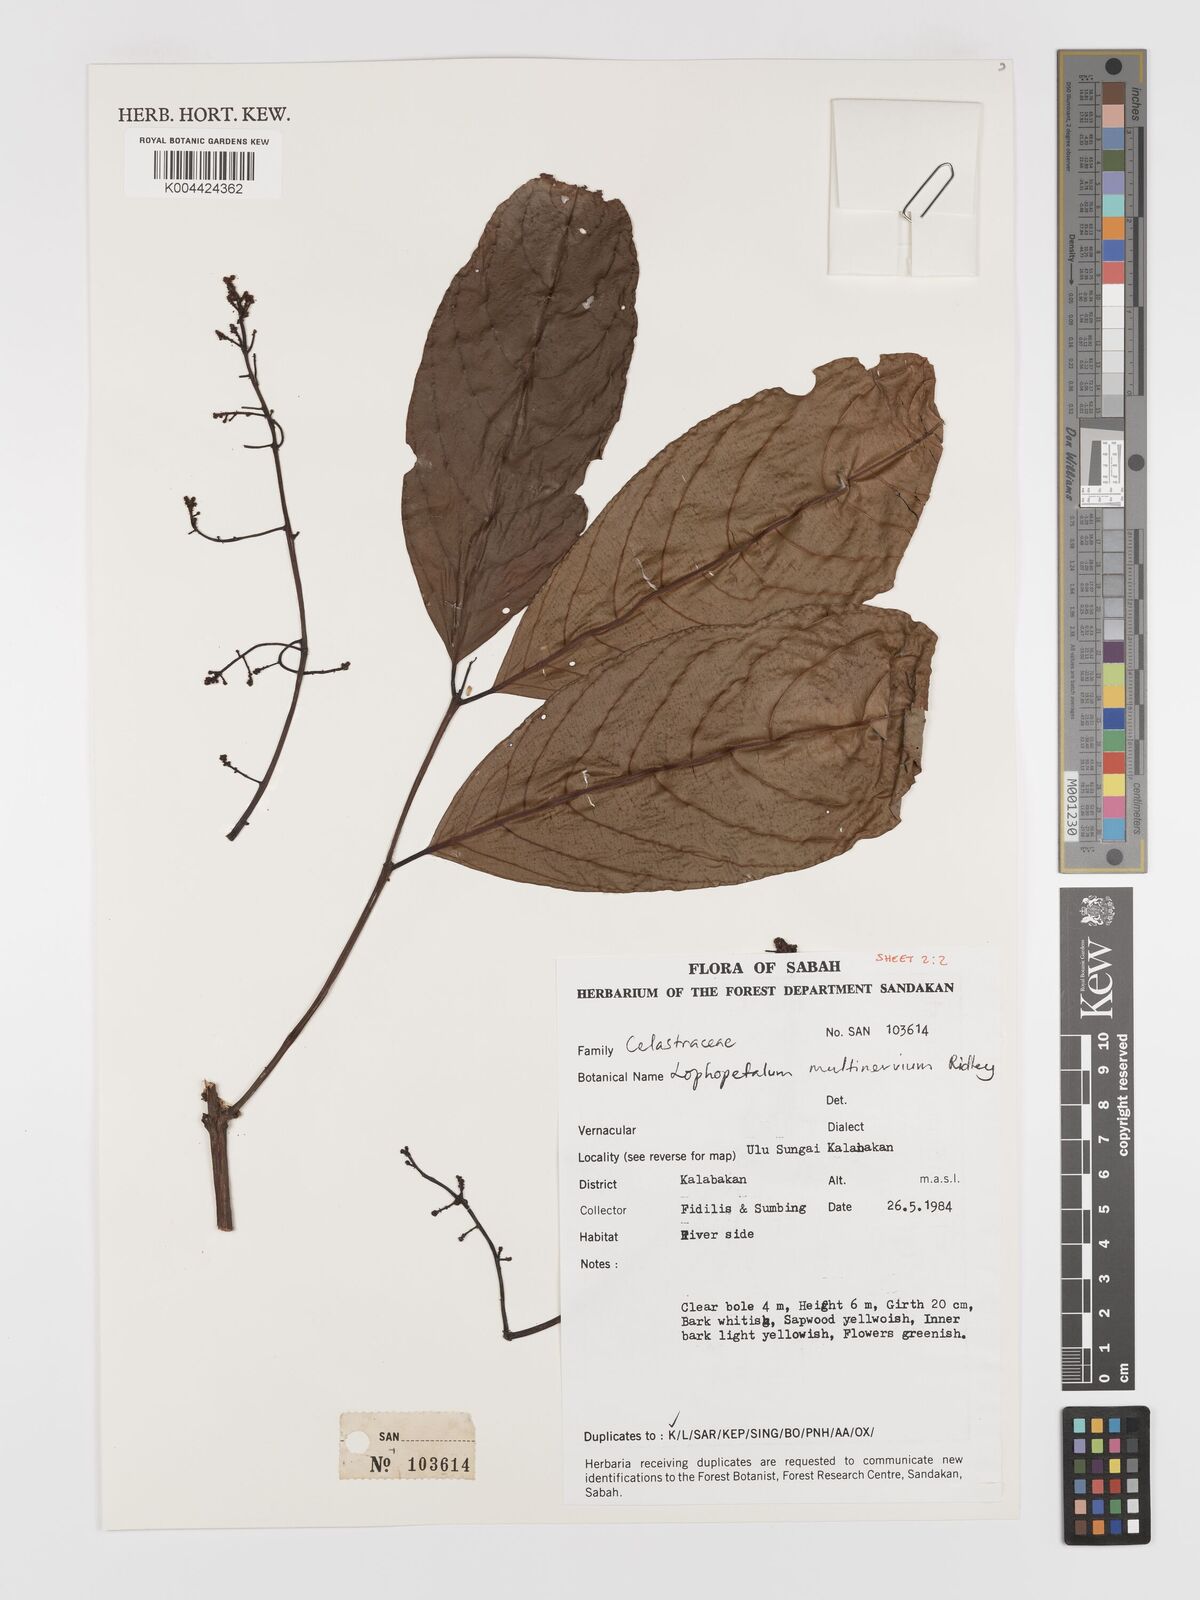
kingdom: Plantae
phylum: Tracheophyta
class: Magnoliopsida
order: Celastrales
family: Celastraceae
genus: Lophopetalum
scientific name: Lophopetalum multinervium
